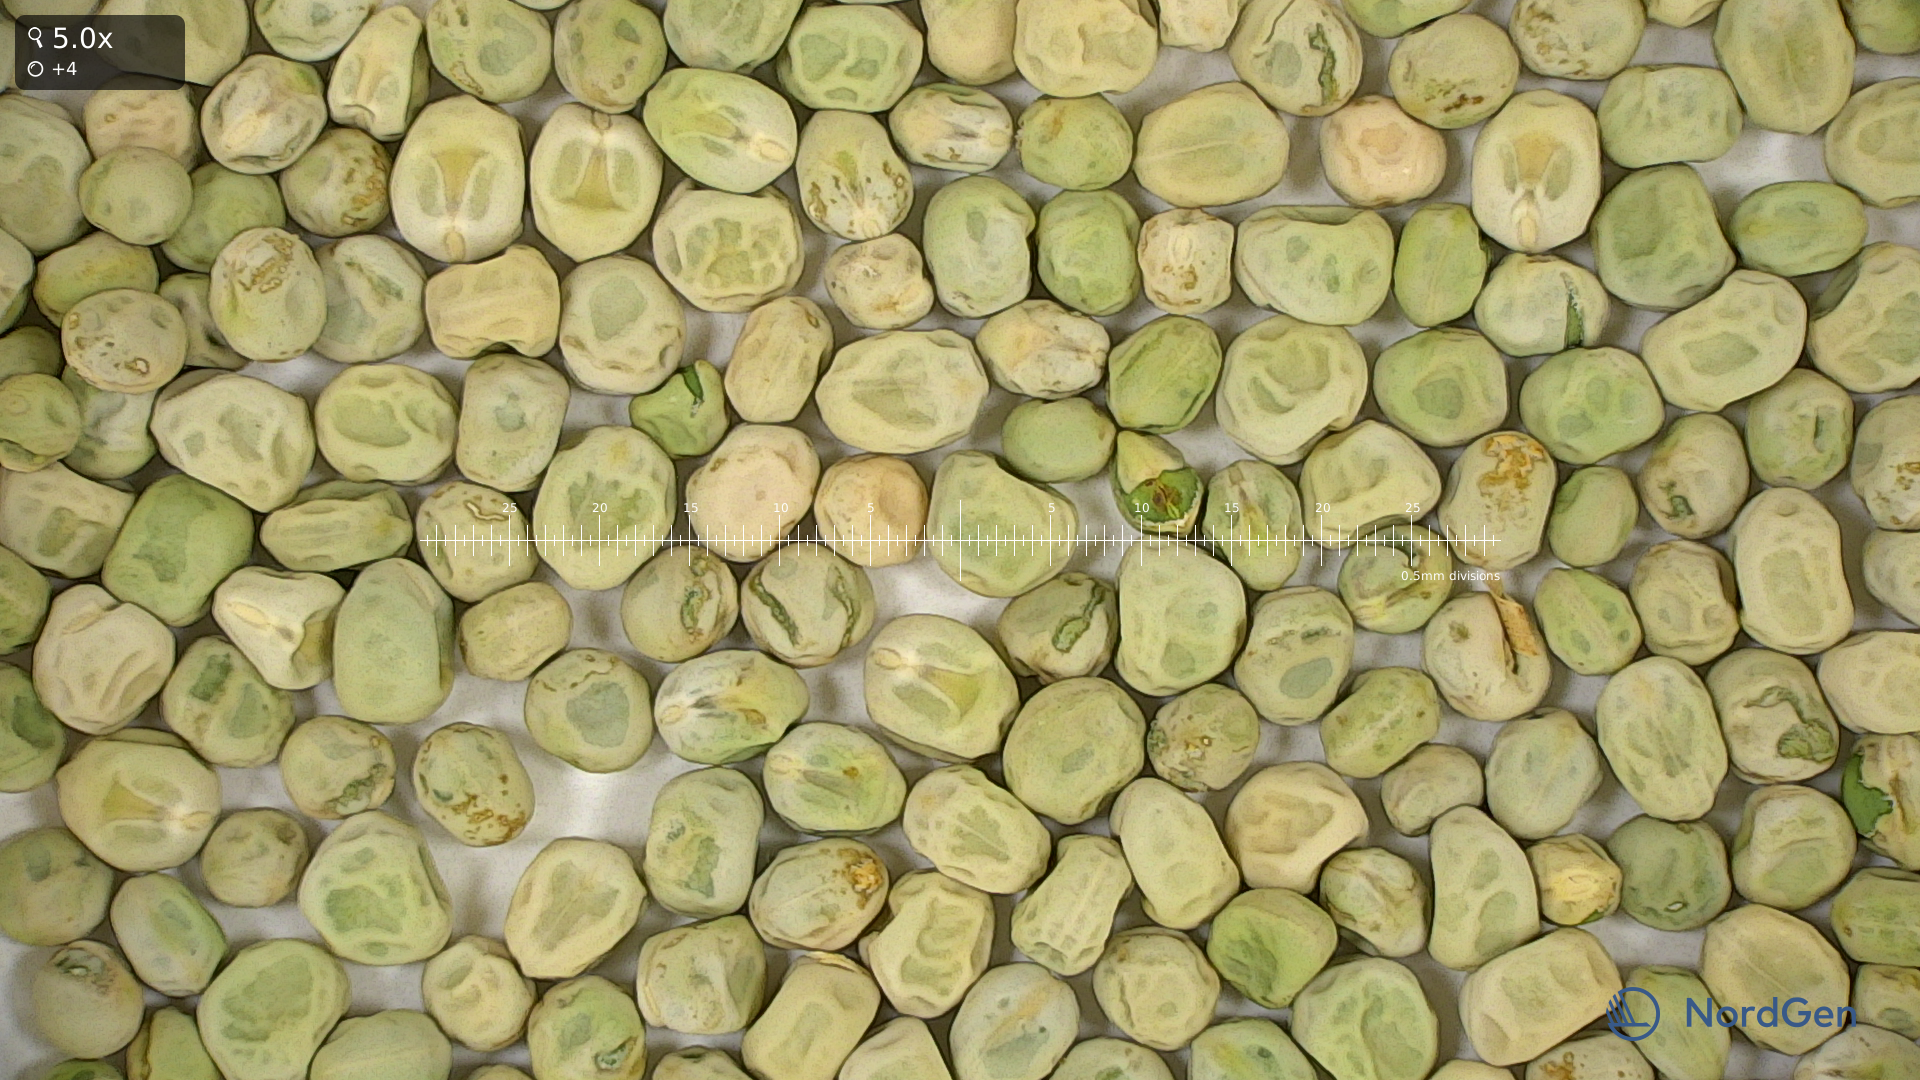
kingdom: Plantae
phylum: Tracheophyta
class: Magnoliopsida
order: Fabales
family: Fabaceae
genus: Lathyrus
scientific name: Lathyrus oleraceus
